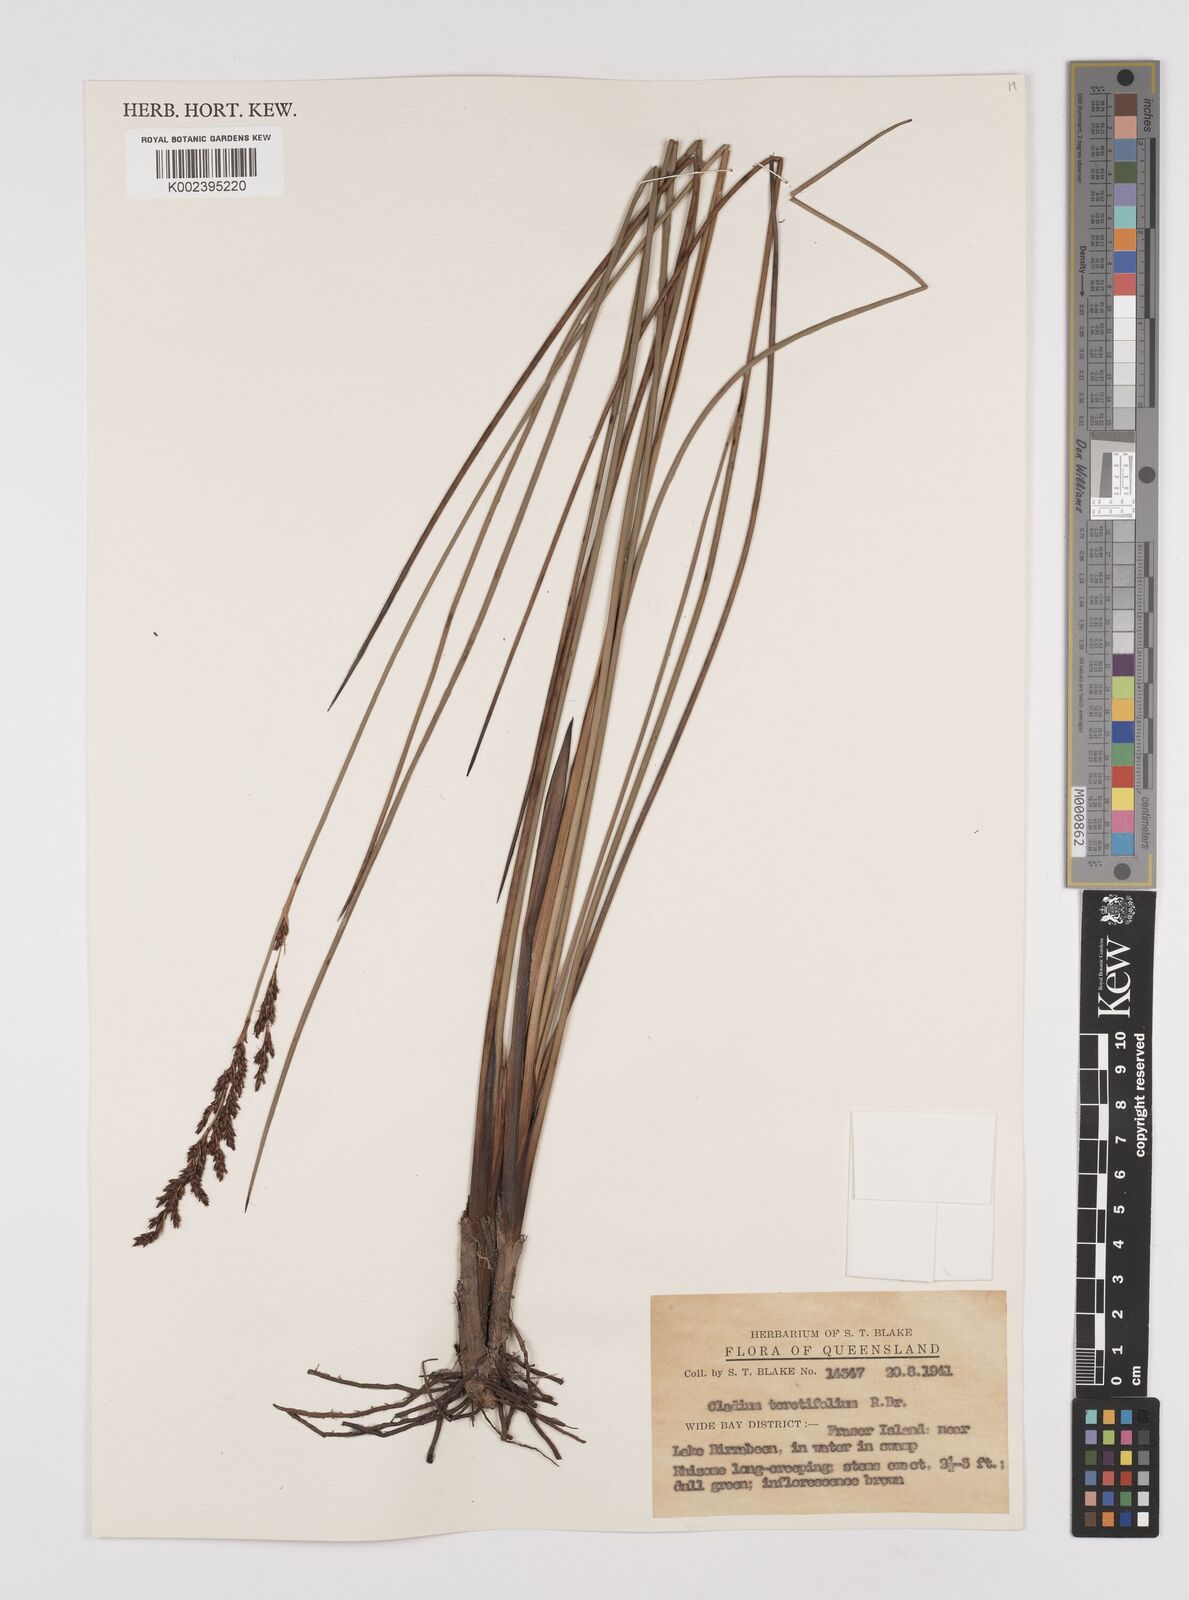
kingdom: Plantae
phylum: Tracheophyta
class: Liliopsida
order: Poales
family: Cyperaceae
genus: Machaerina
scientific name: Machaerina teretifolia
